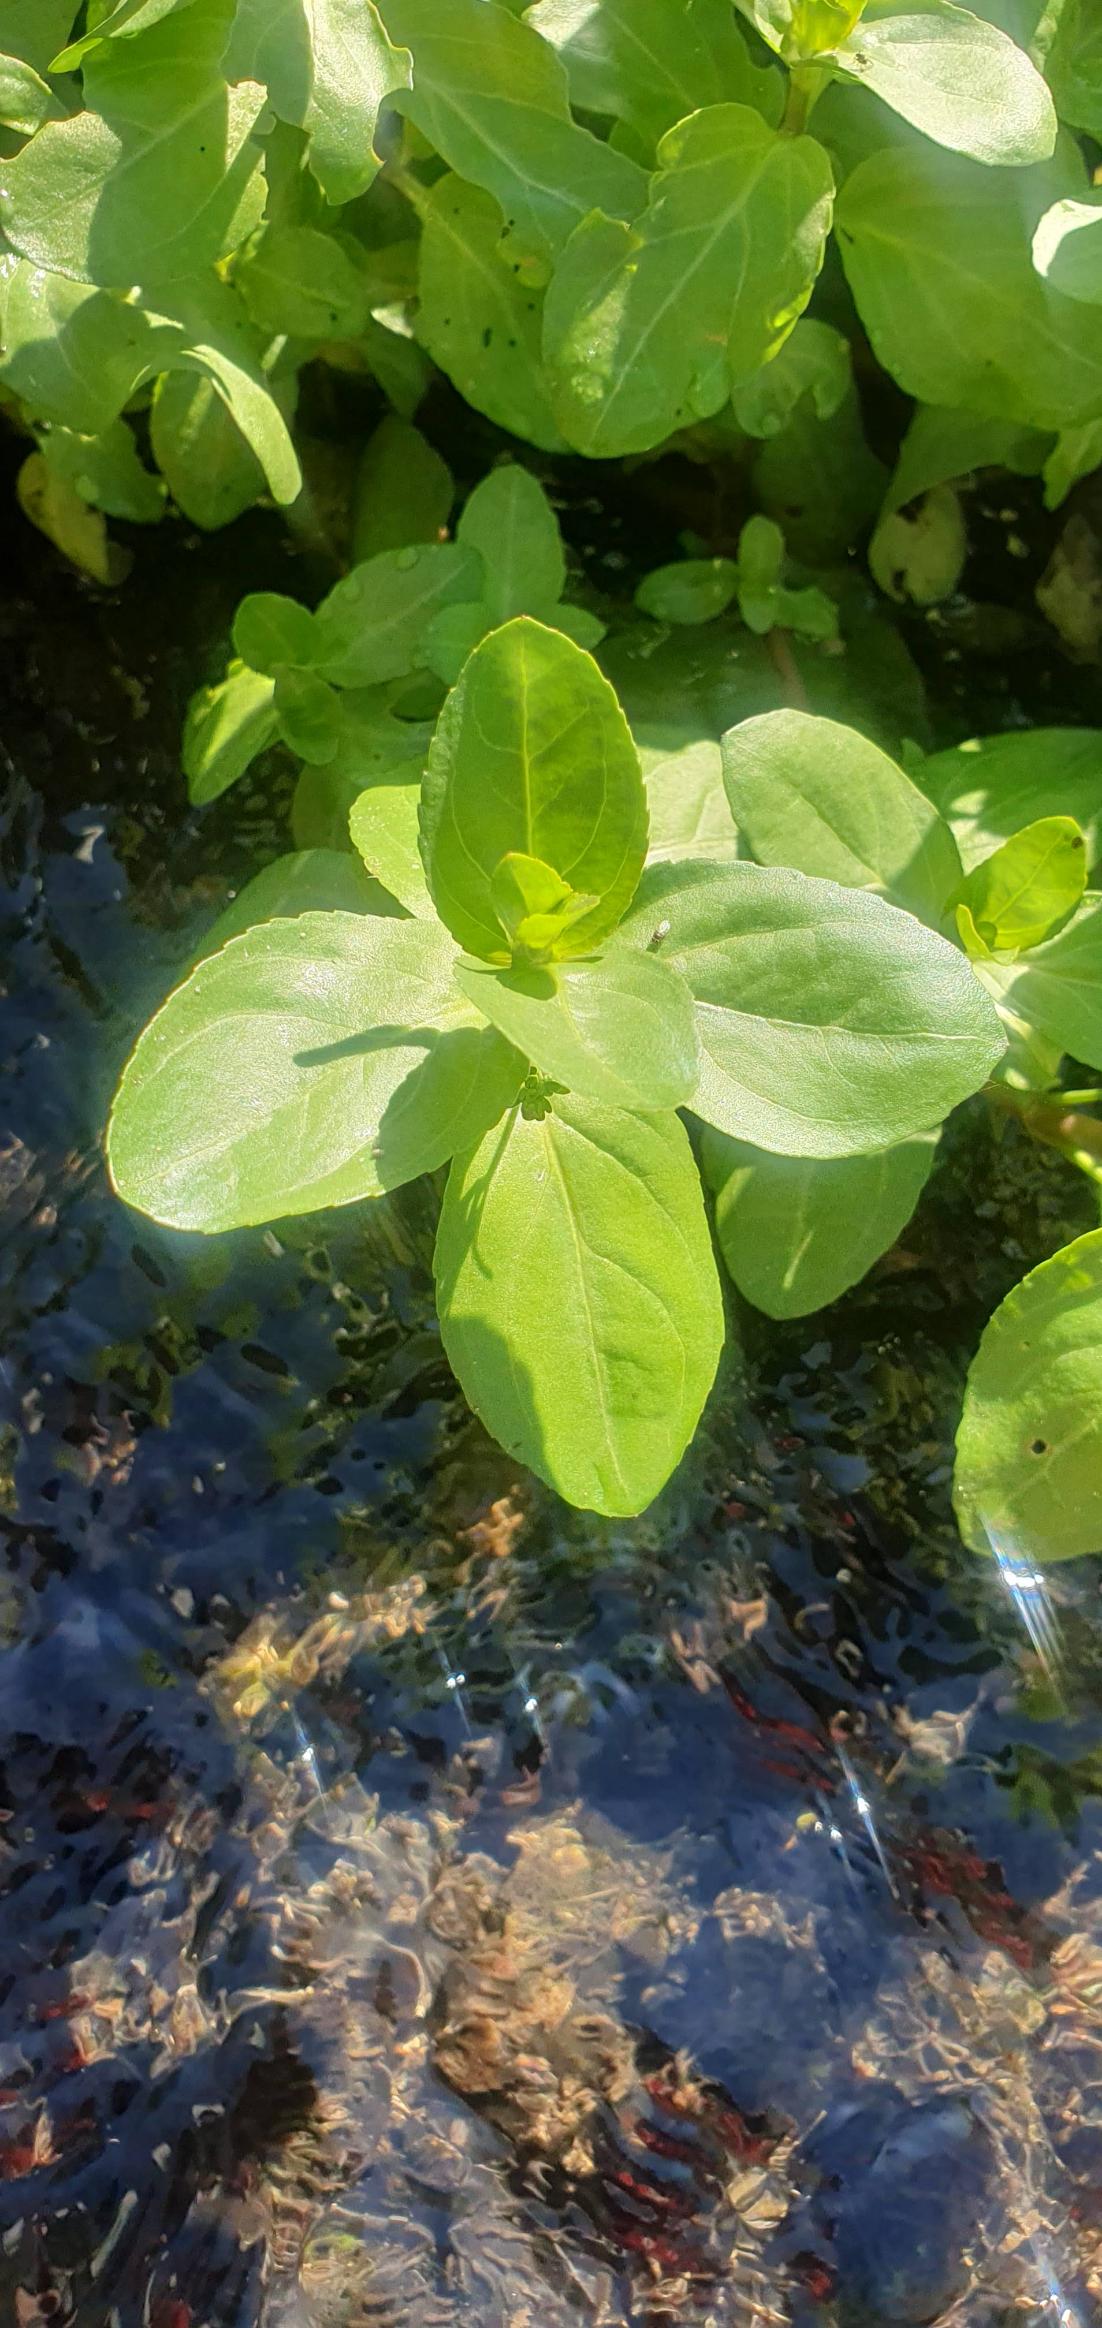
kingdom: Plantae
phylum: Tracheophyta
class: Magnoliopsida
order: Lamiales
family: Plantaginaceae
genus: Veronica
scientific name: Veronica beccabunga
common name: Tykbladet ærenpris
